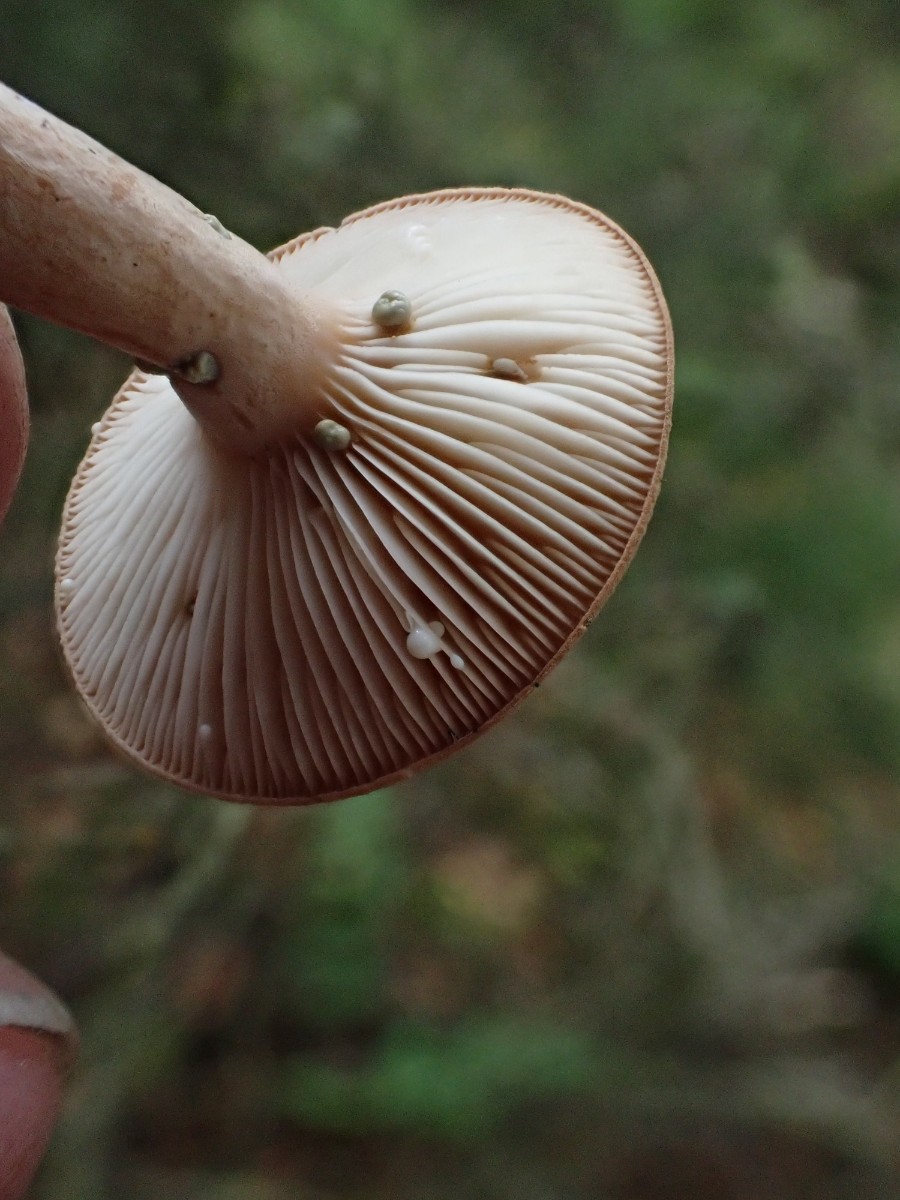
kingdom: Fungi
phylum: Basidiomycota
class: Agaricomycetes
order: Russulales
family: Russulaceae
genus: Lactarius
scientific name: Lactarius vietus
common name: violetgrå mælkehat
